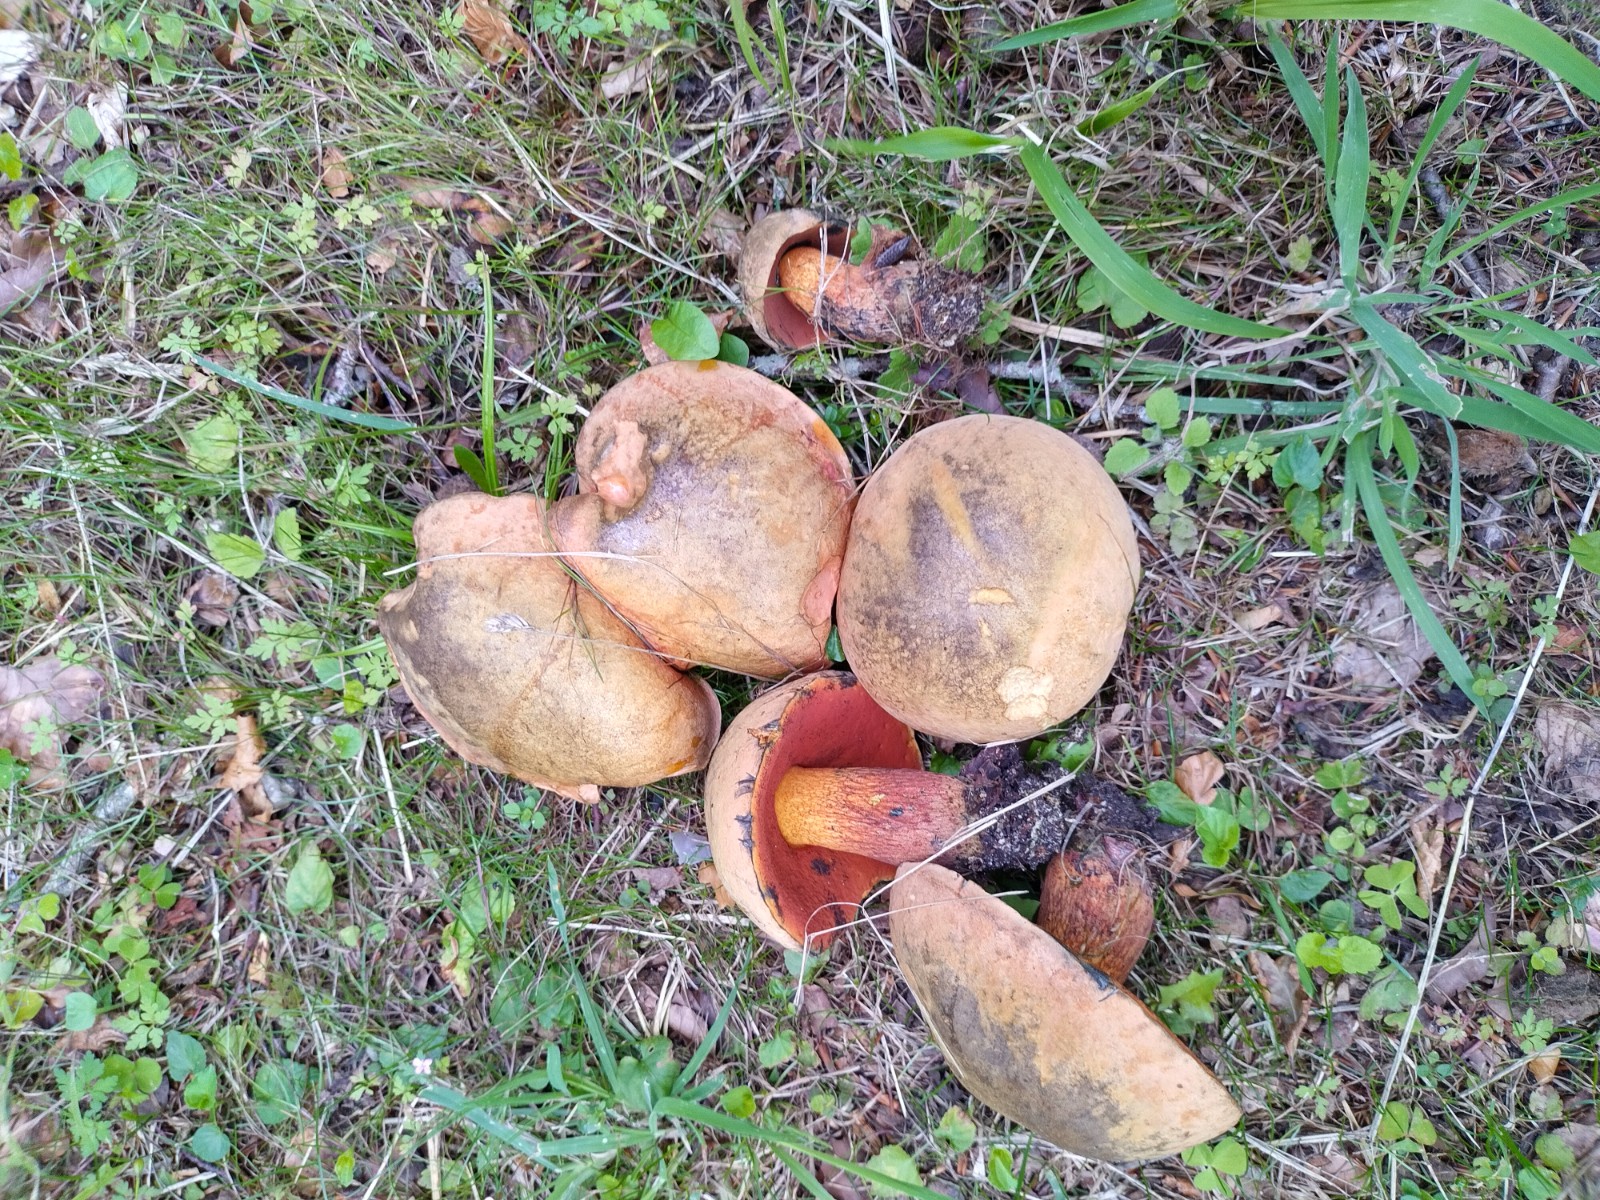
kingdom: Fungi
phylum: Basidiomycota
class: Agaricomycetes
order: Boletales
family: Boletaceae
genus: Suillellus
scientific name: Suillellus luridus
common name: netstokket indigorørhat
